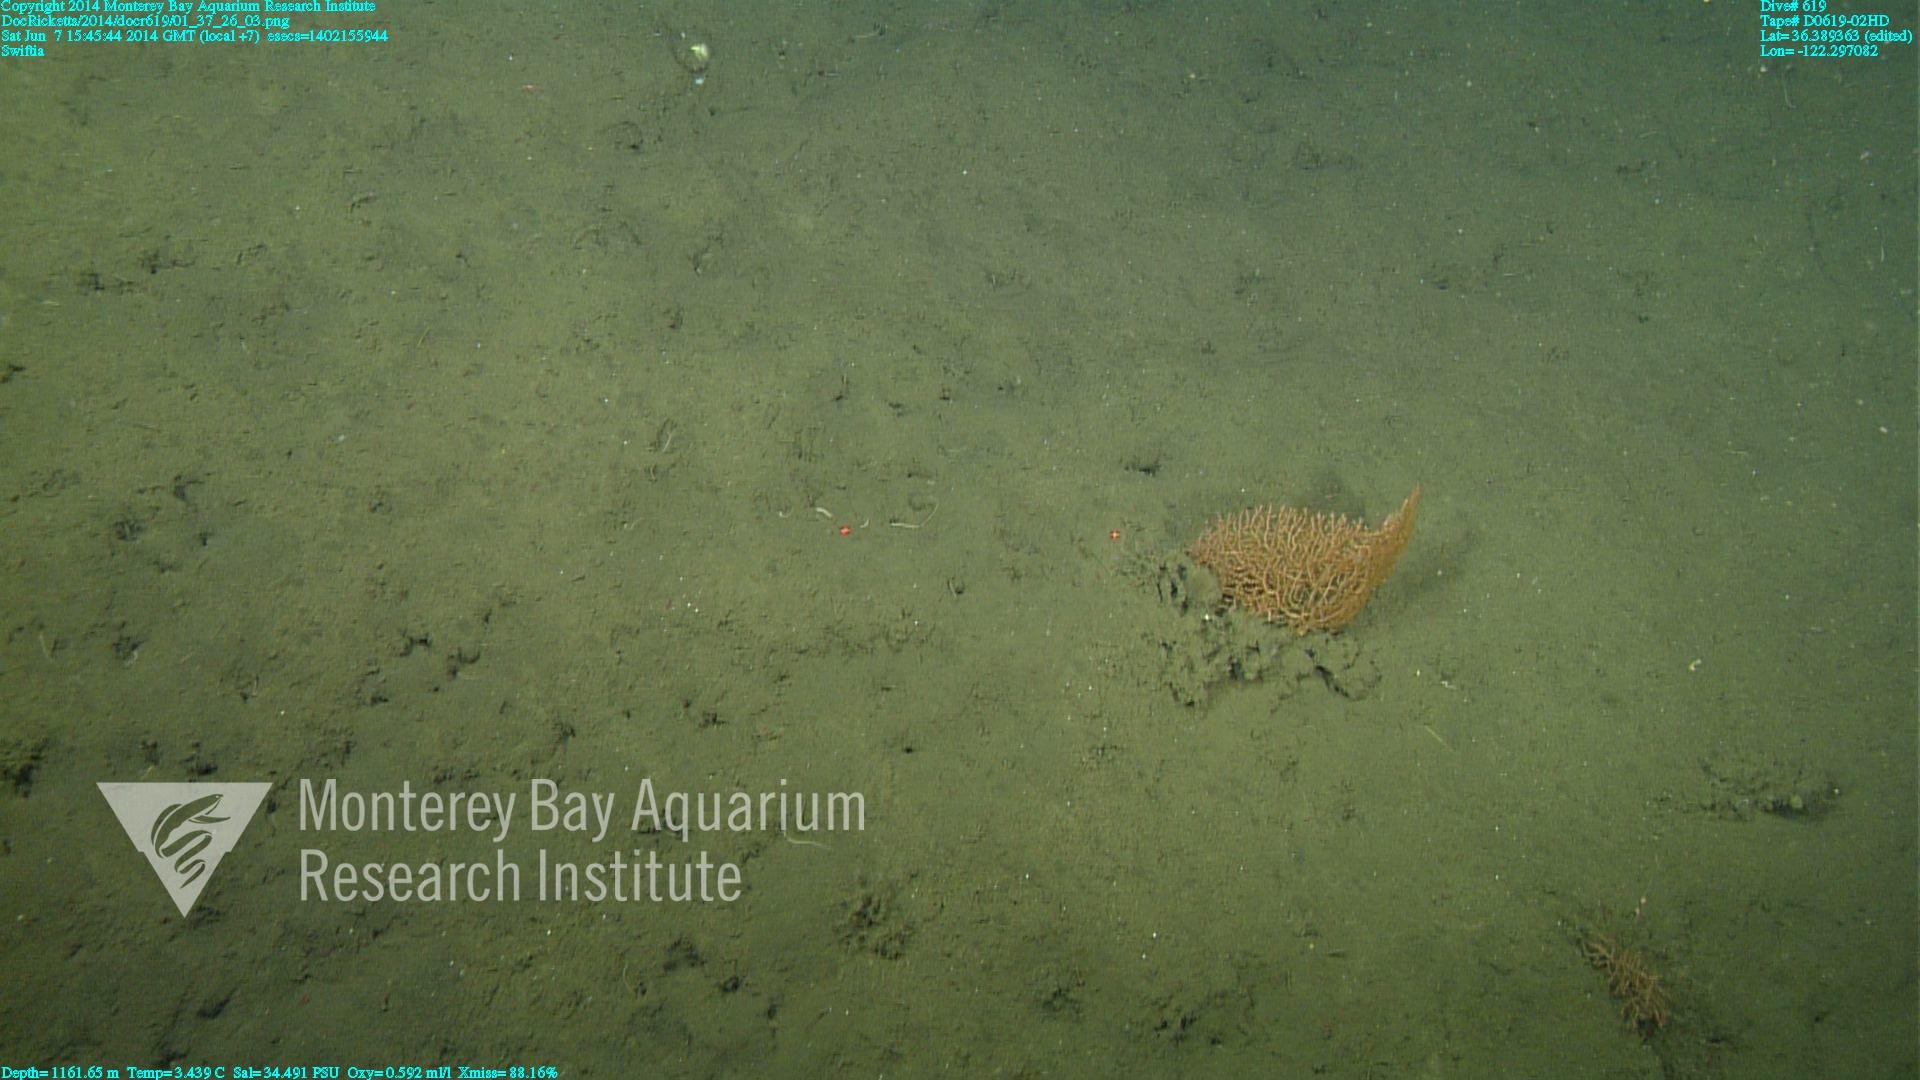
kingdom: Animalia
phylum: Cnidaria
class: Anthozoa
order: Malacalcyonacea
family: Gorgoniidae
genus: Callistephanus
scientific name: Callistephanus kofoidi
